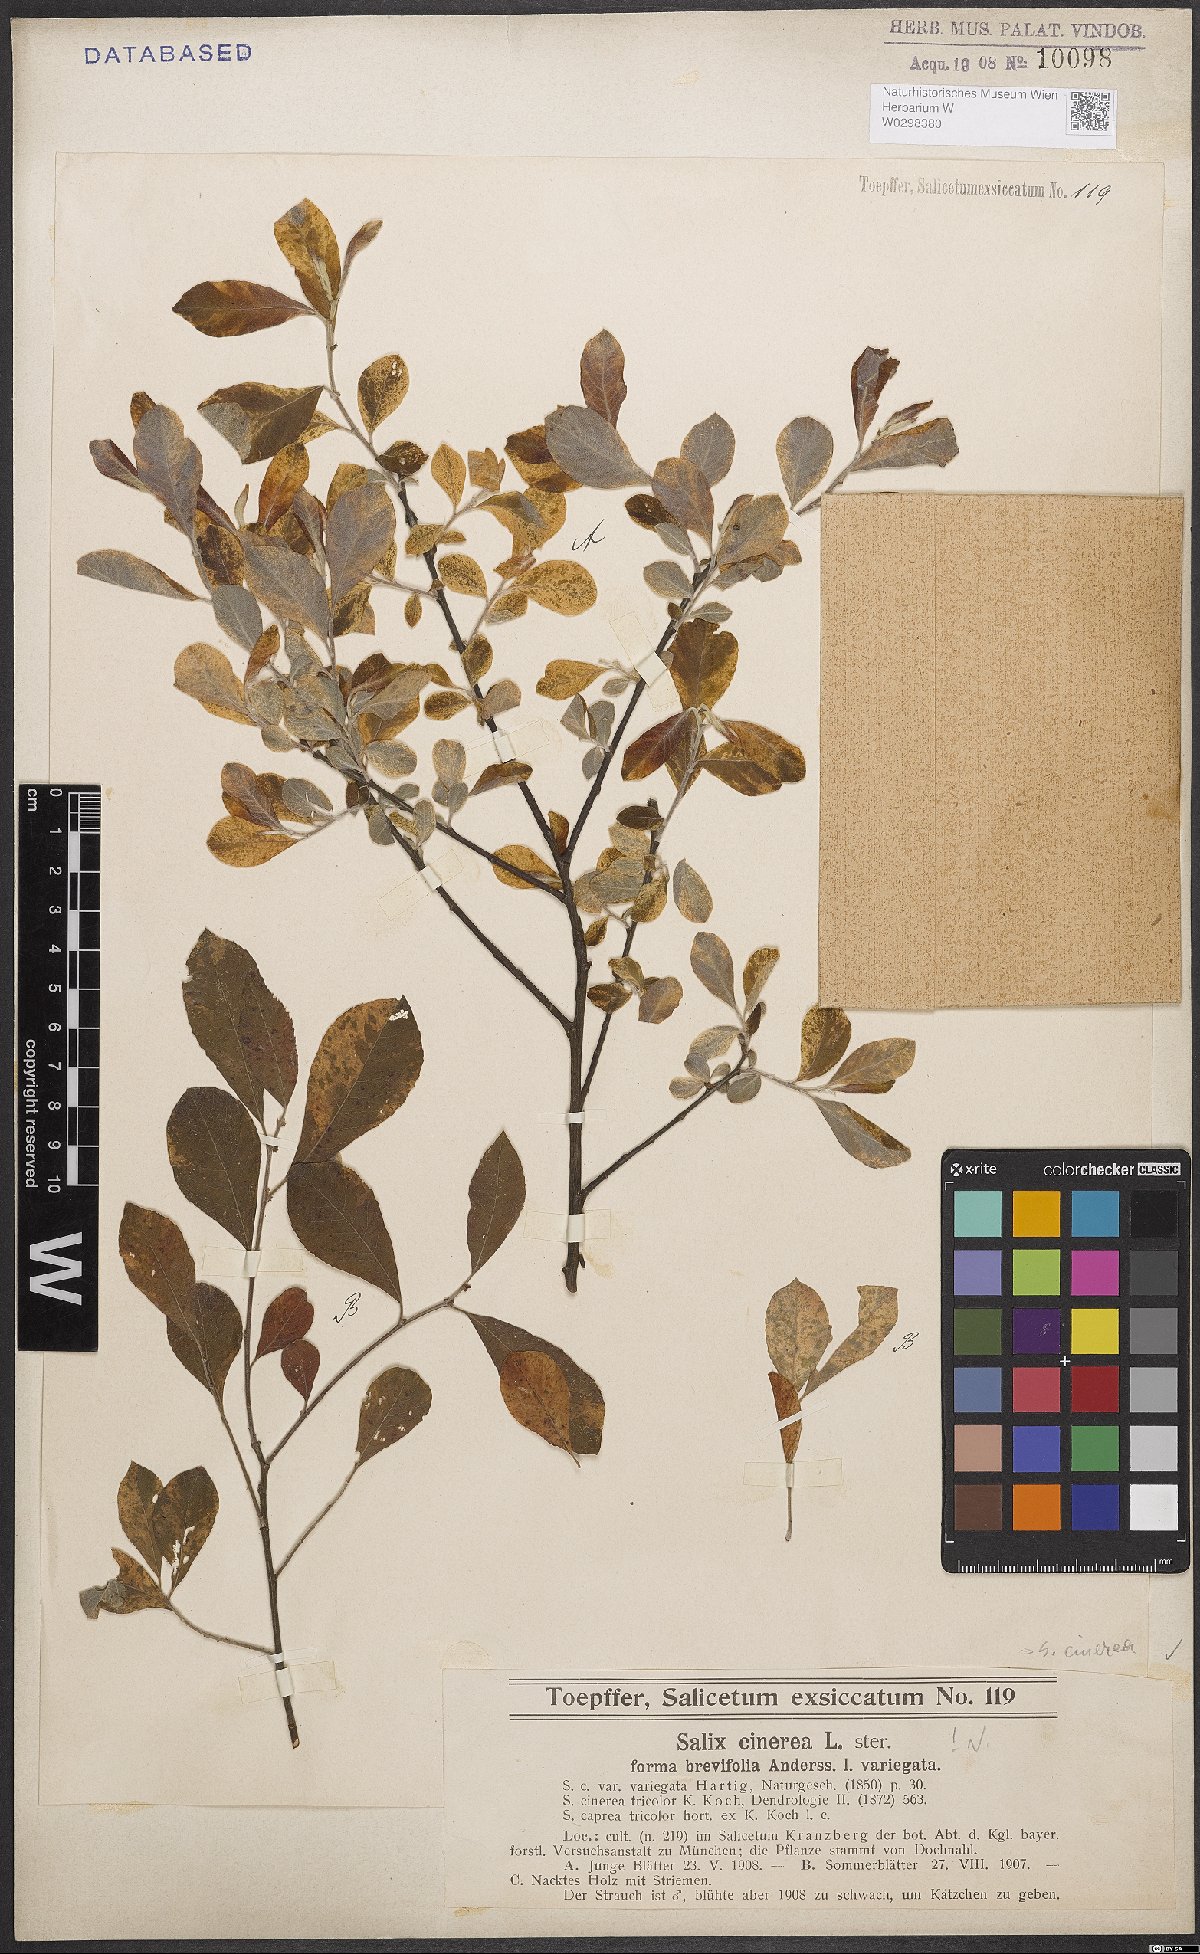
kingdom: Plantae
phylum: Tracheophyta
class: Magnoliopsida
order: Malpighiales
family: Salicaceae
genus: Salix
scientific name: Salix cinerea
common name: Common sallow
